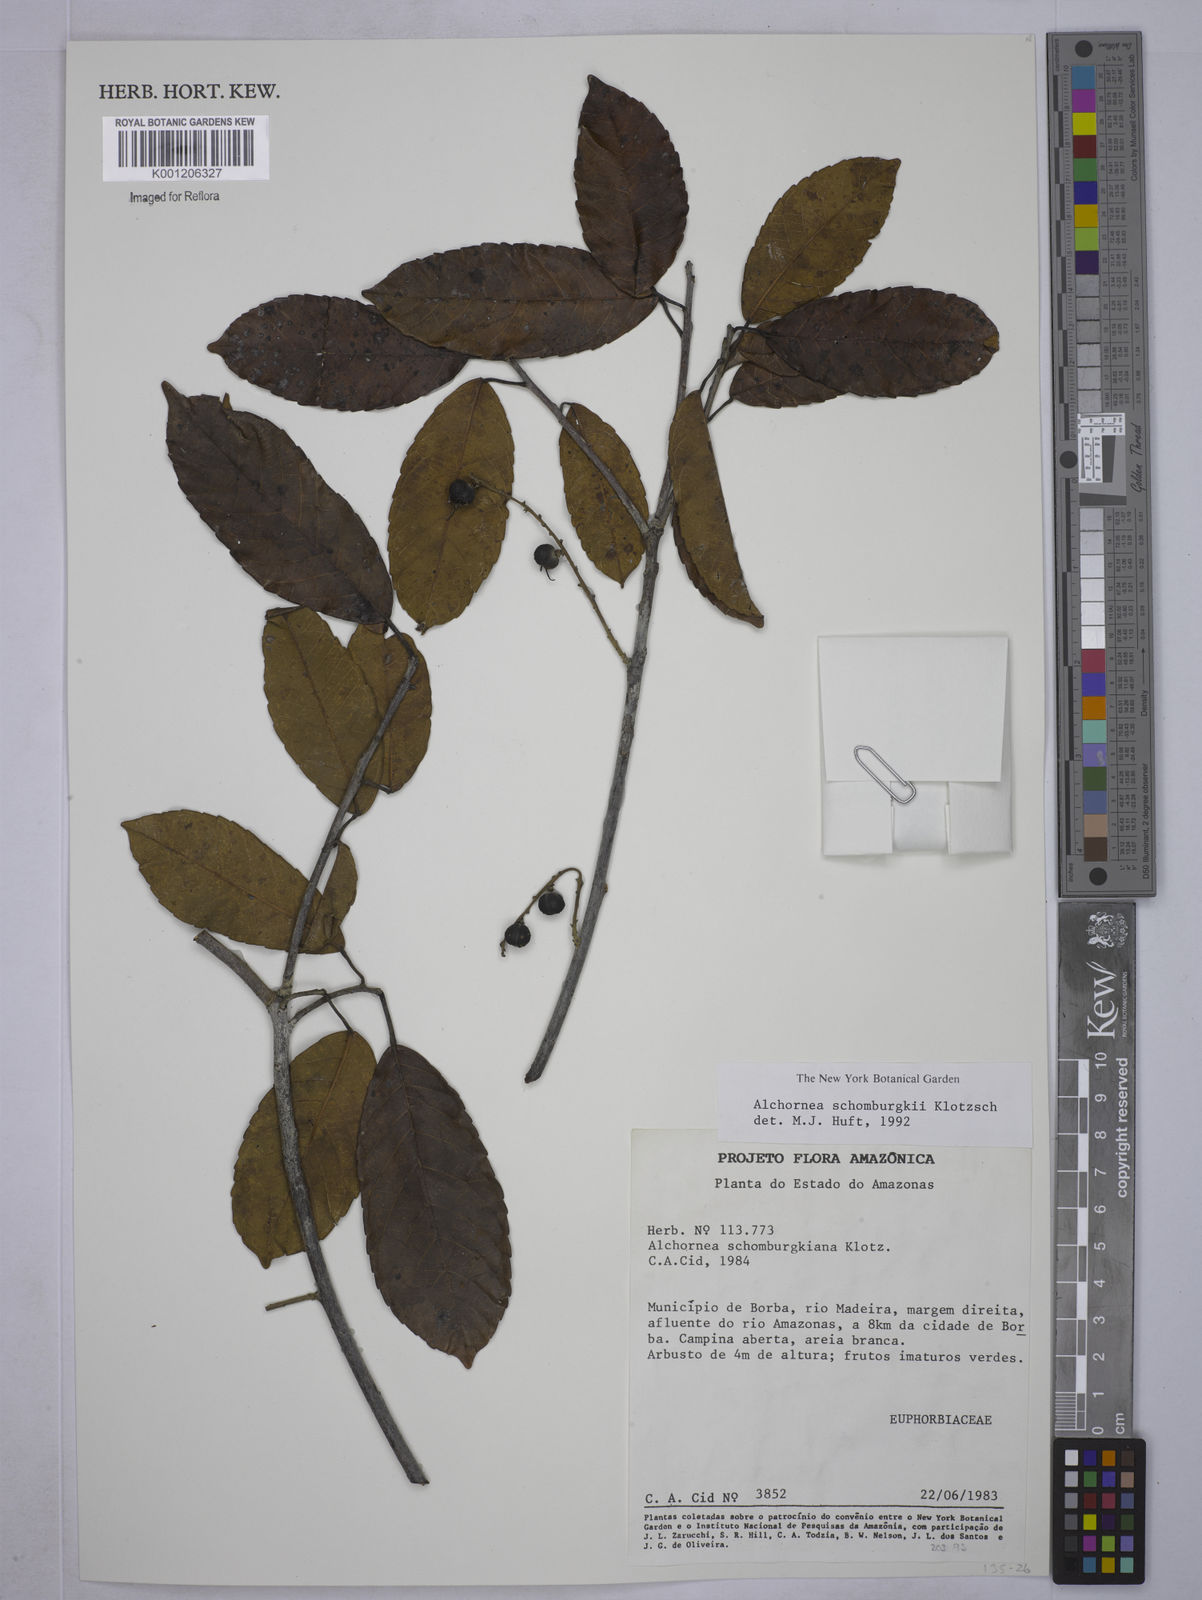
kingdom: Plantae
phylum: Tracheophyta
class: Magnoliopsida
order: Malpighiales
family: Euphorbiaceae
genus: Alchornea
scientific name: Alchornea discolor
